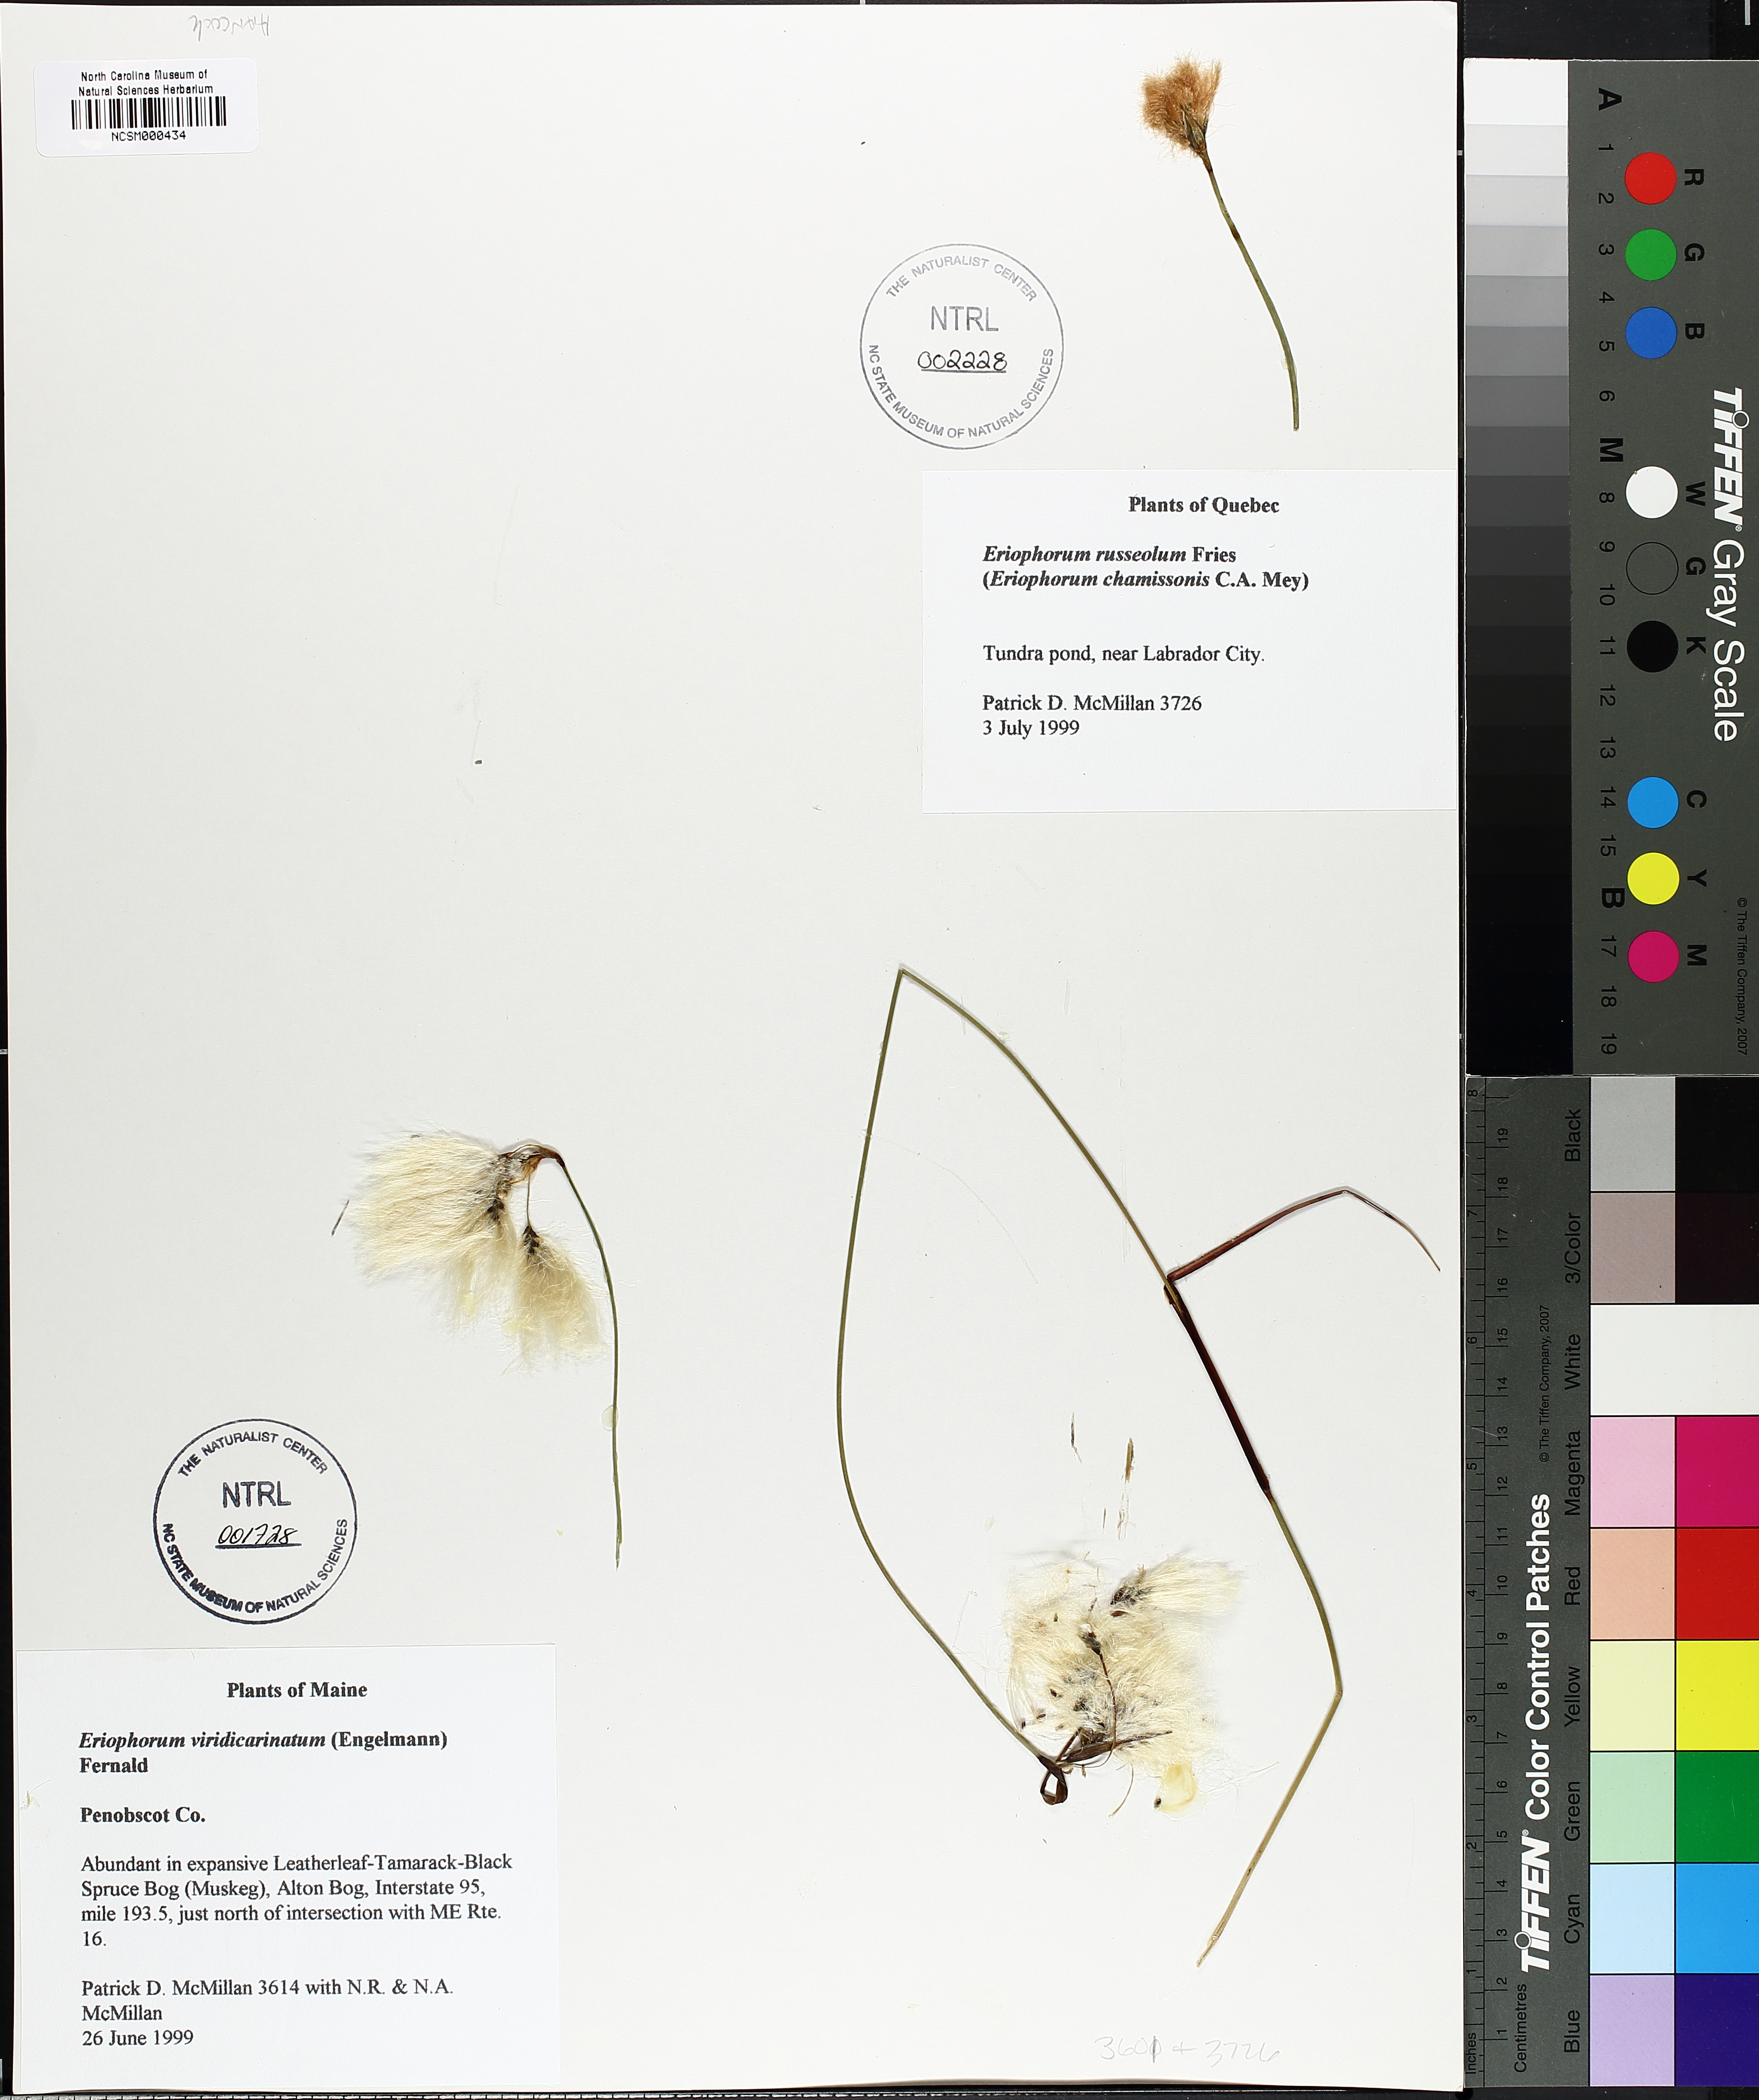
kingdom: Plantae
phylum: Tracheophyta
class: Liliopsida
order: Poales
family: Cyperaceae
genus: Eriophorum
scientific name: Eriophorum viridicarinatum
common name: Green-keeled cottongrass
